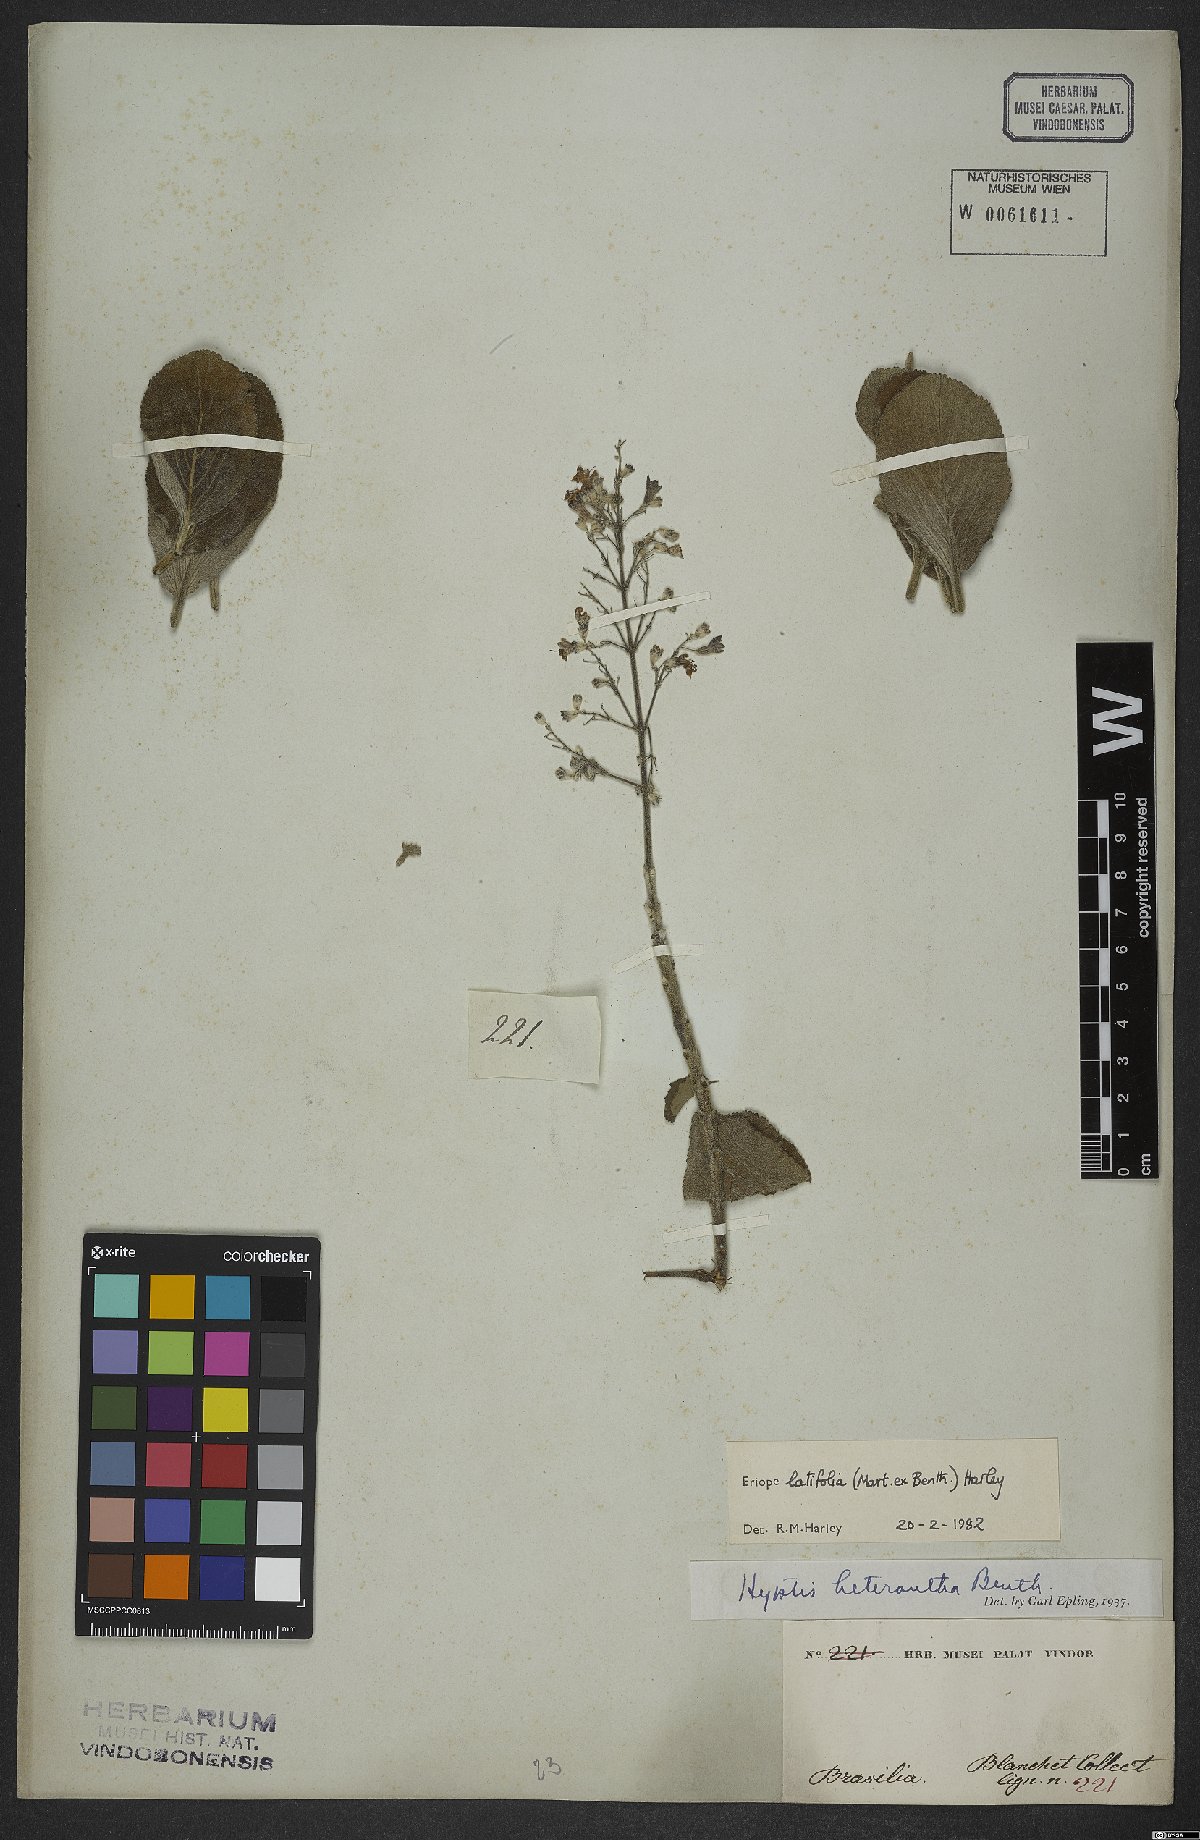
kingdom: Plantae
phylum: Tracheophyta
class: Magnoliopsida
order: Lamiales
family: Lamiaceae
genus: Eriope
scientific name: Eriope latifolia
